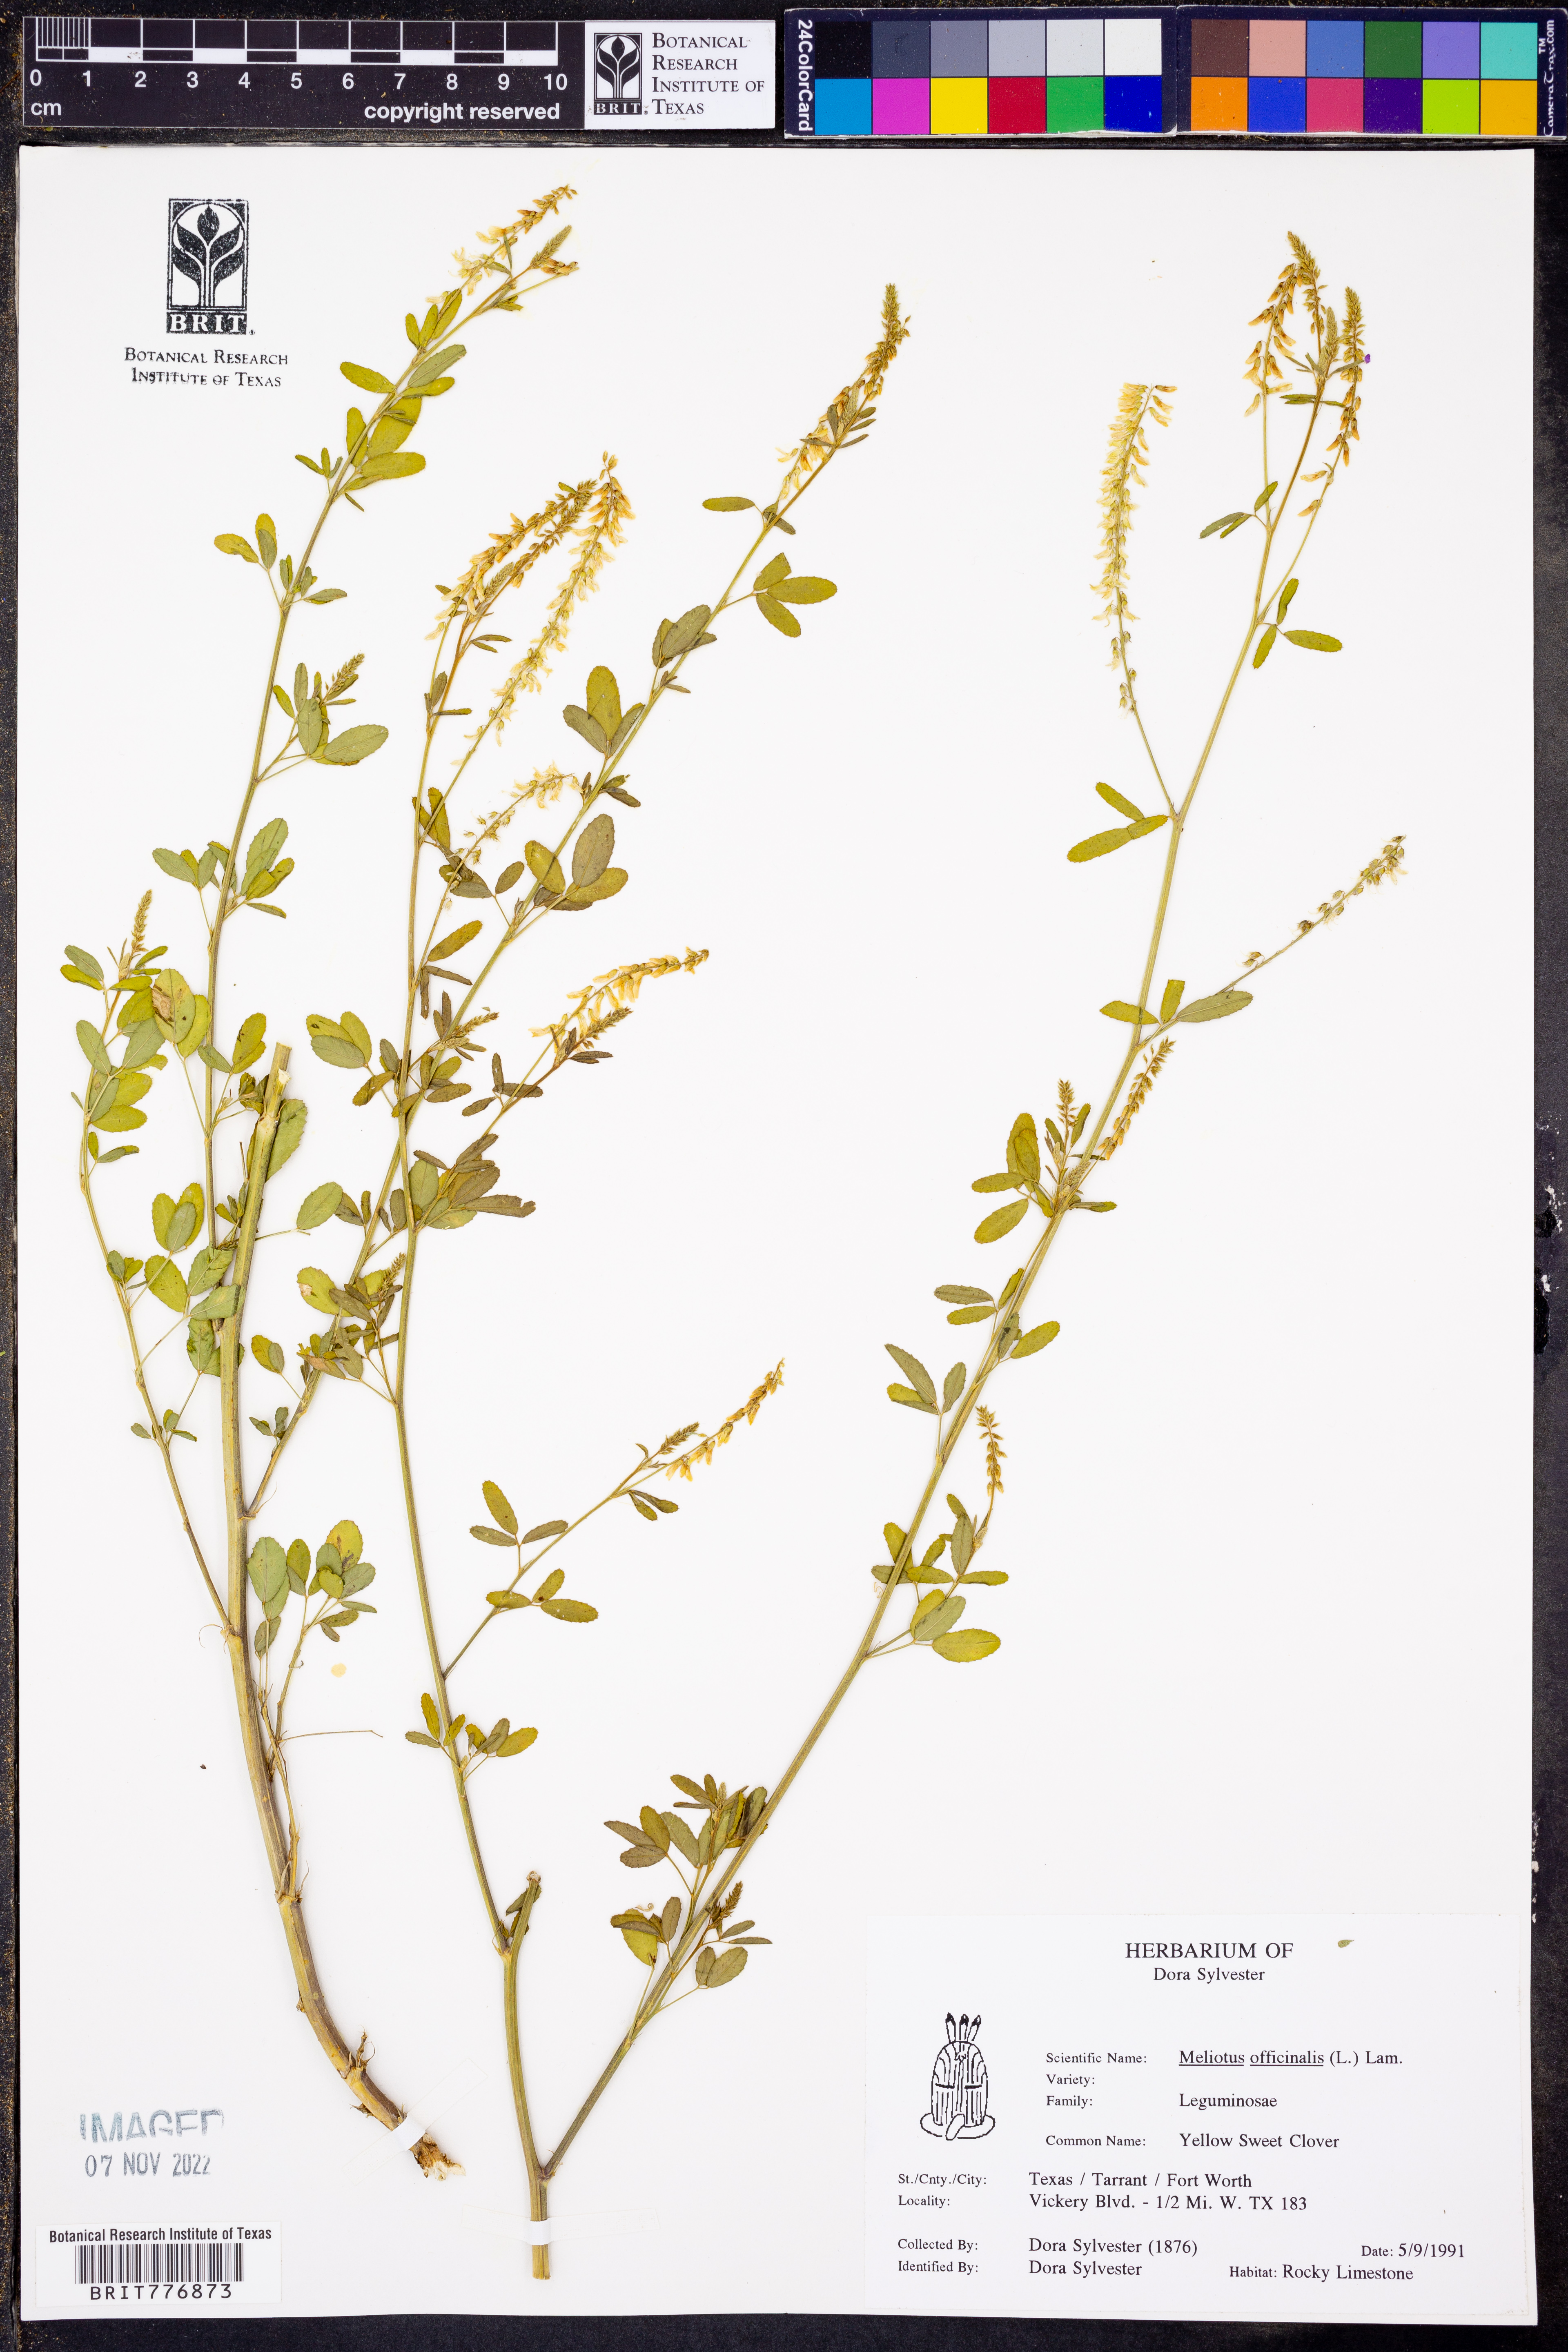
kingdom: Plantae
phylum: Tracheophyta
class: Magnoliopsida
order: Fabales
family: Fabaceae
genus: Melilotus
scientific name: Melilotus officinalis
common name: Sweetclover
